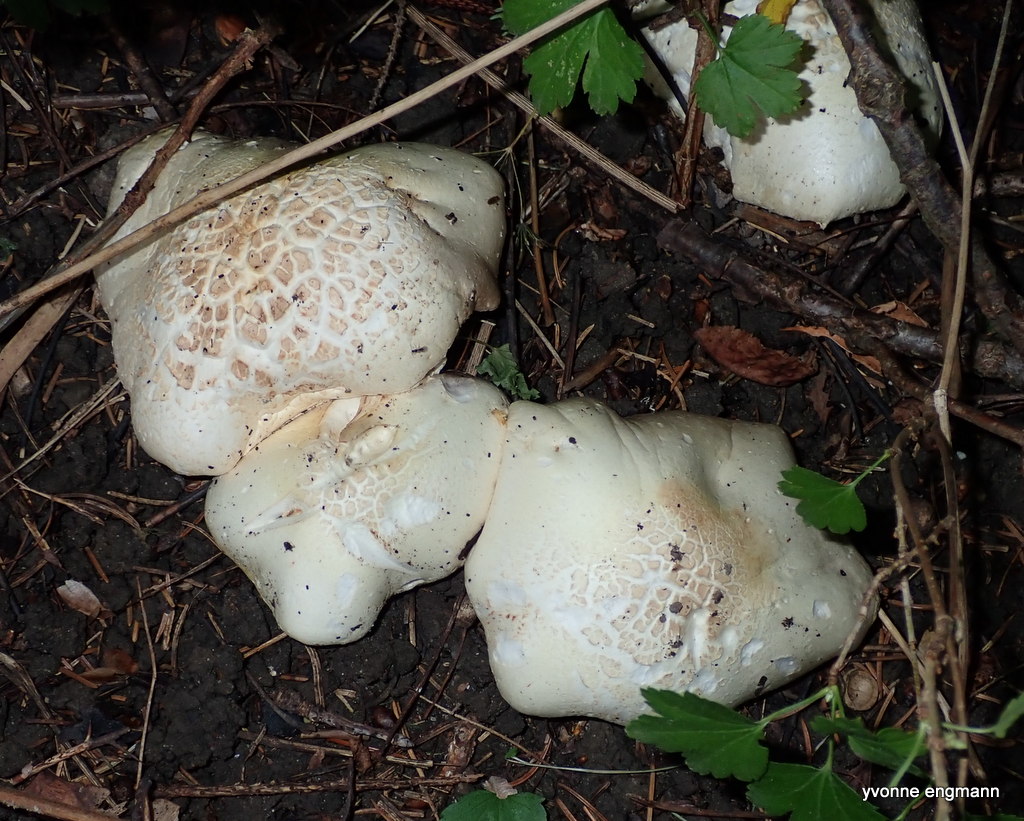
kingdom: Fungi
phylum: Basidiomycota
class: Agaricomycetes
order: Agaricales
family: Agaricaceae
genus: Agaricus
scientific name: Agaricus
